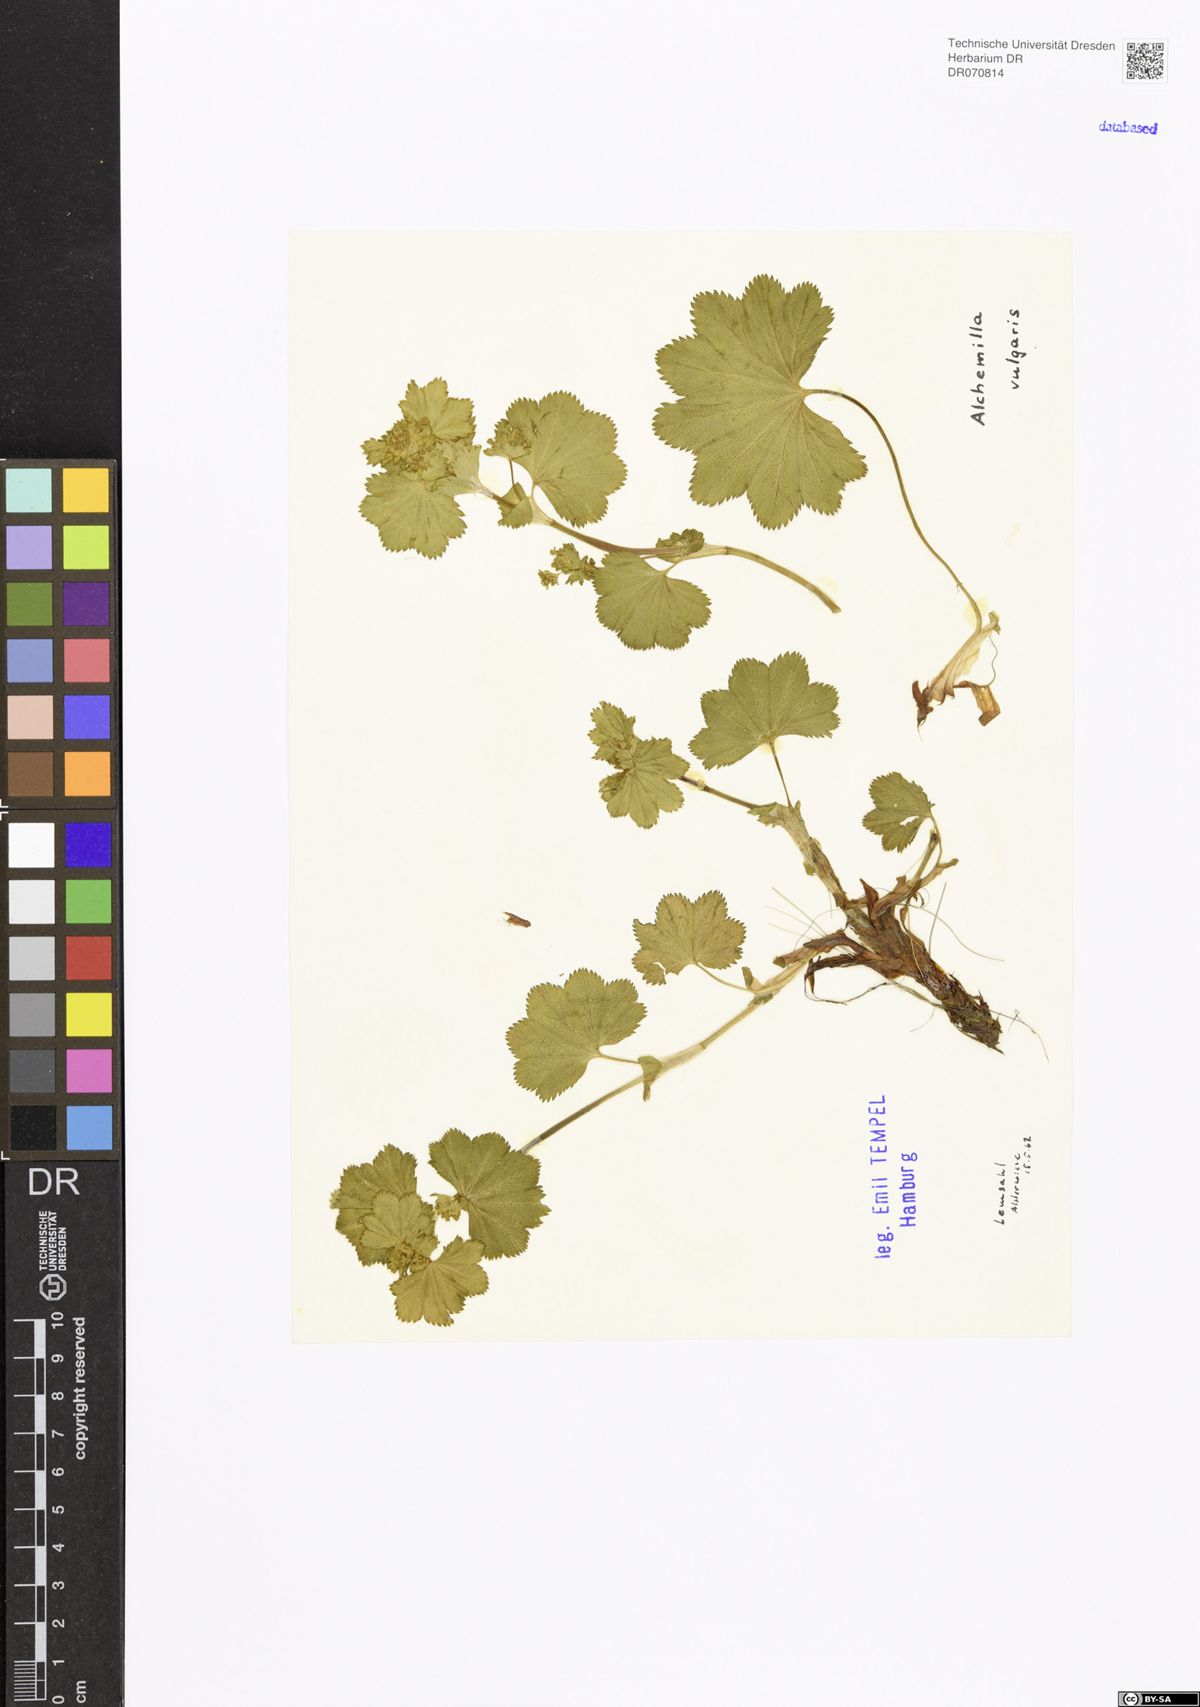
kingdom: Plantae
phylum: Tracheophyta
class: Magnoliopsida
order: Rosales
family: Rosaceae
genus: Alchemilla
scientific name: Alchemilla vulgaris
